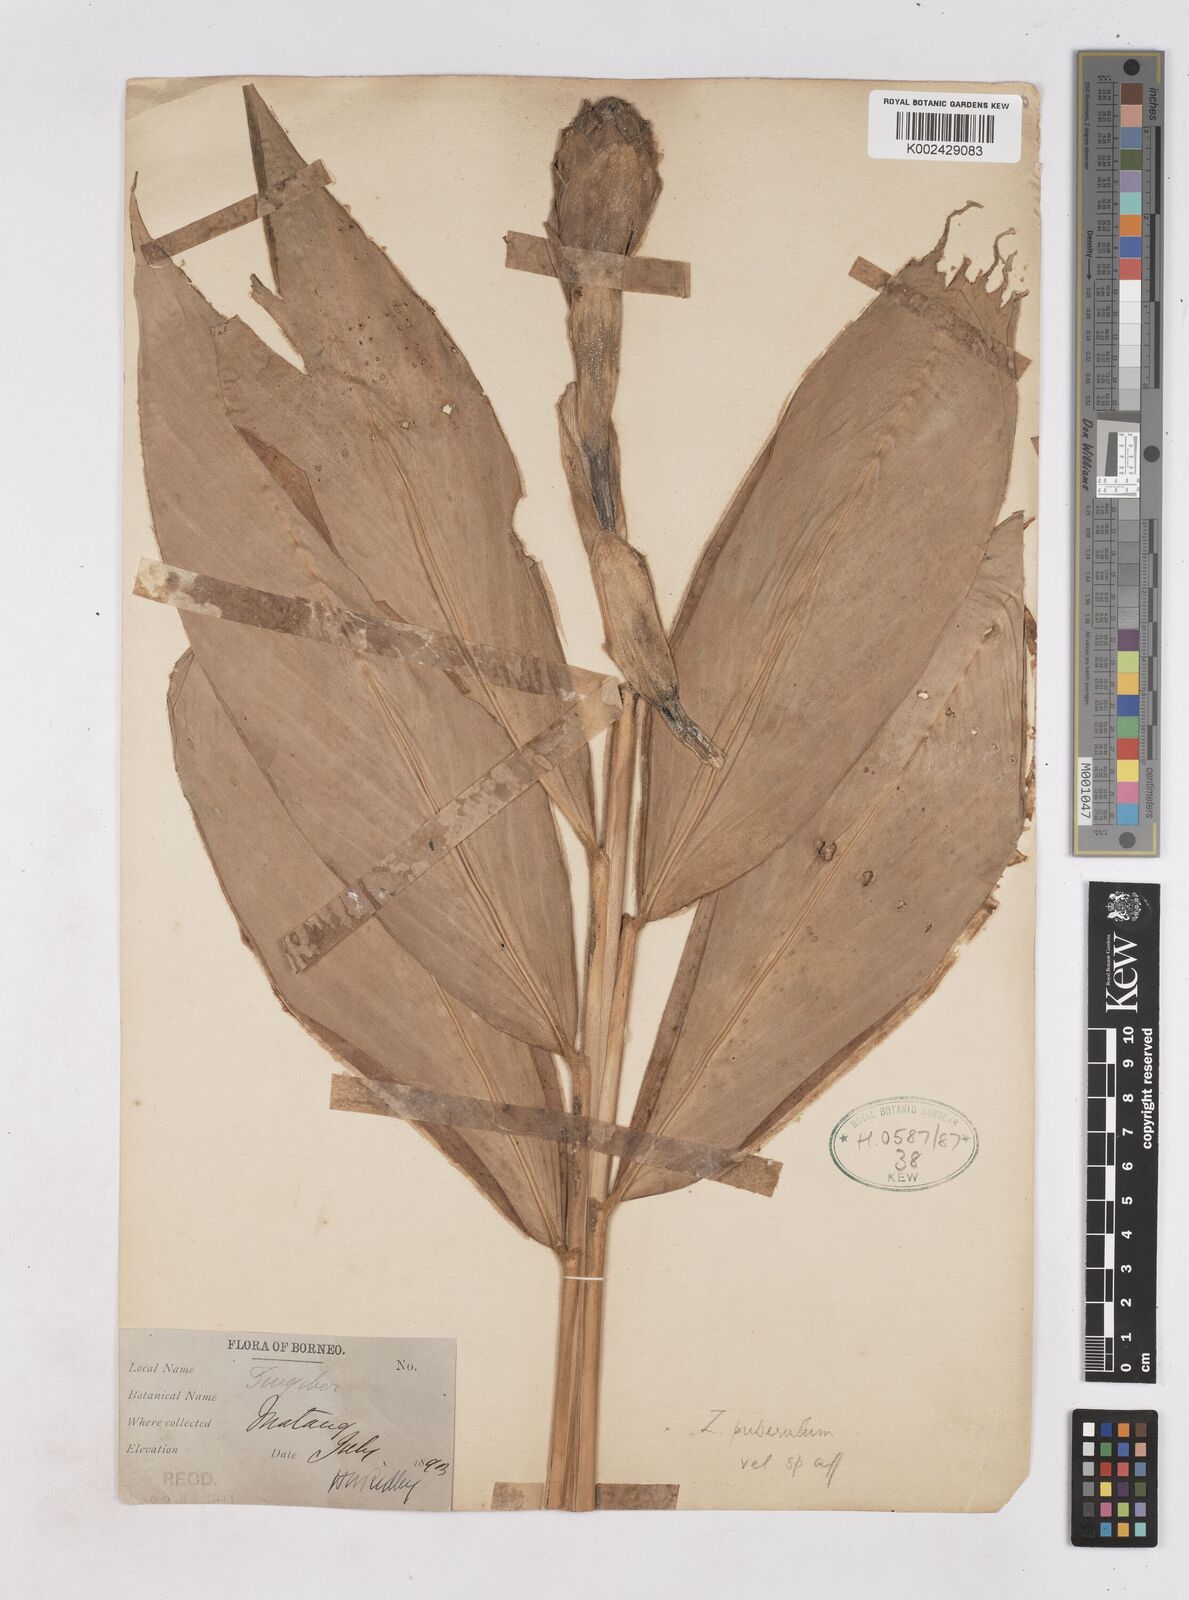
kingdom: Plantae
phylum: Tracheophyta
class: Liliopsida
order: Zingiberales
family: Zingiberaceae
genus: Zingiber
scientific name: Zingiber puberulum
